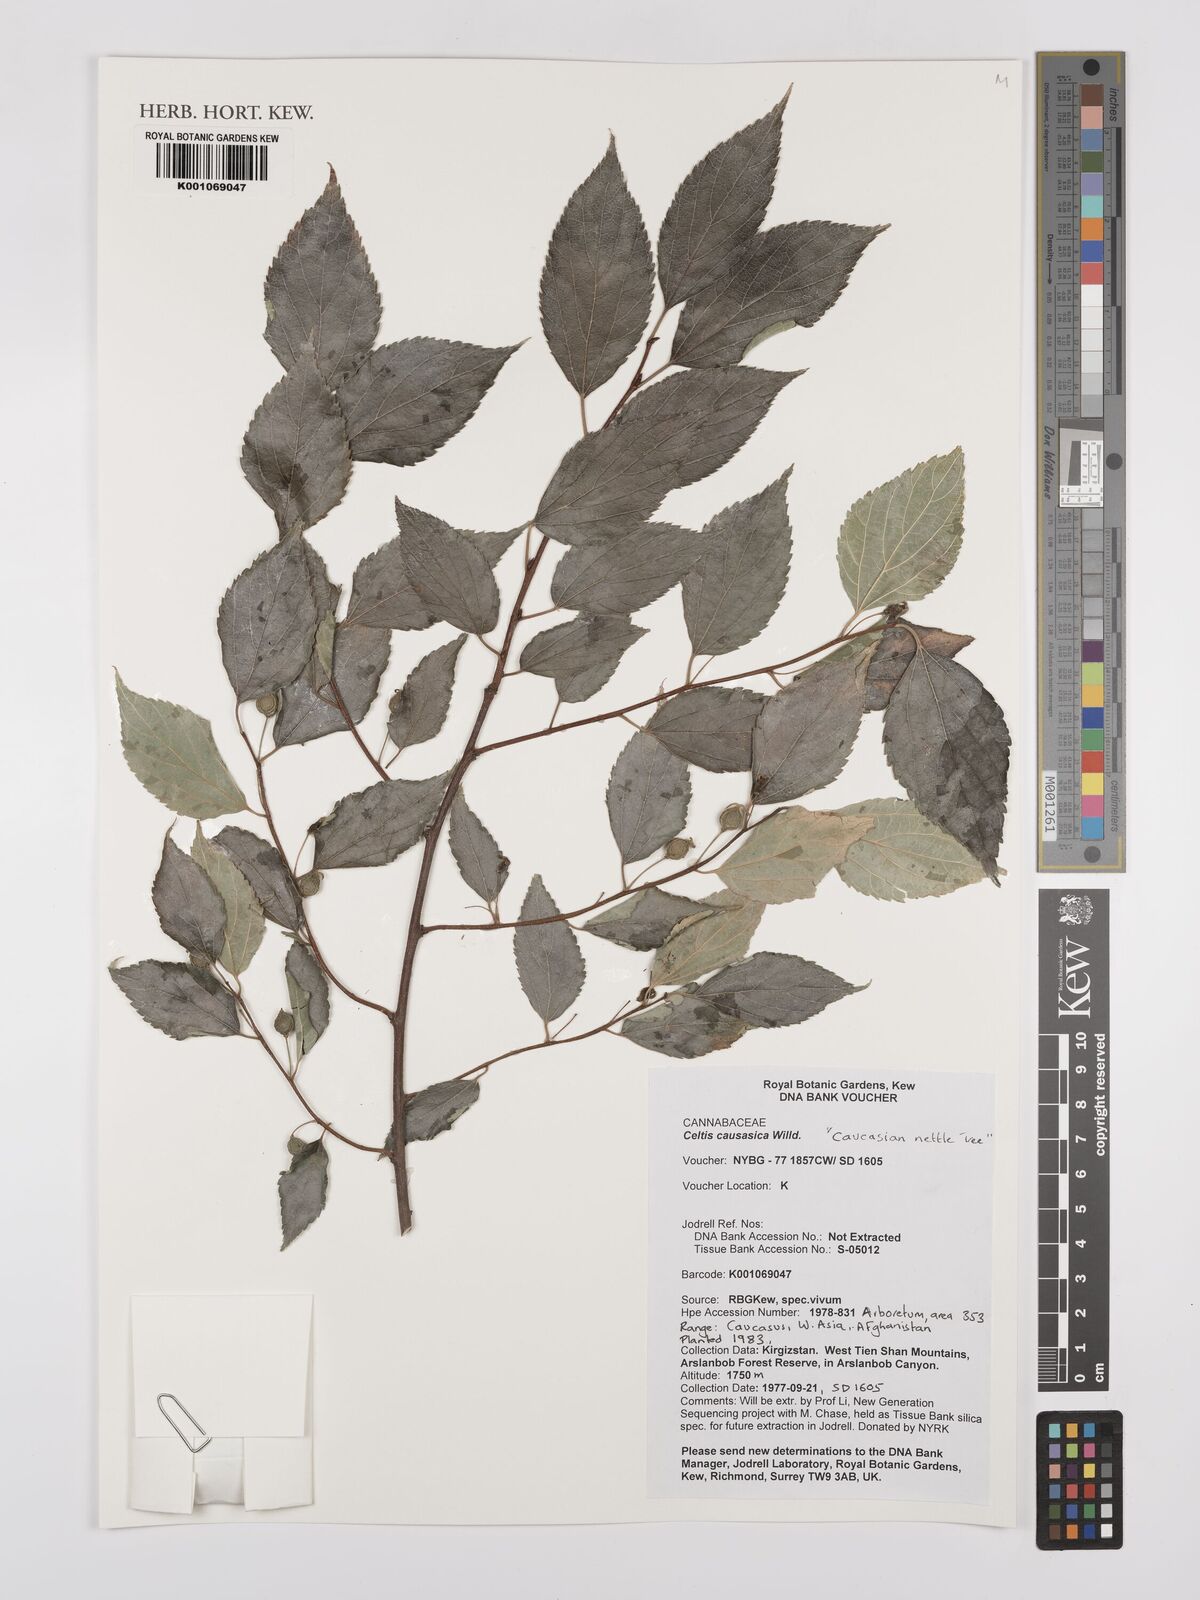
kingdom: Plantae
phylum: Tracheophyta
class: Magnoliopsida
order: Rosales
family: Cannabaceae
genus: Celtis
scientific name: Celtis caucasica
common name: Caucasian hackberry
